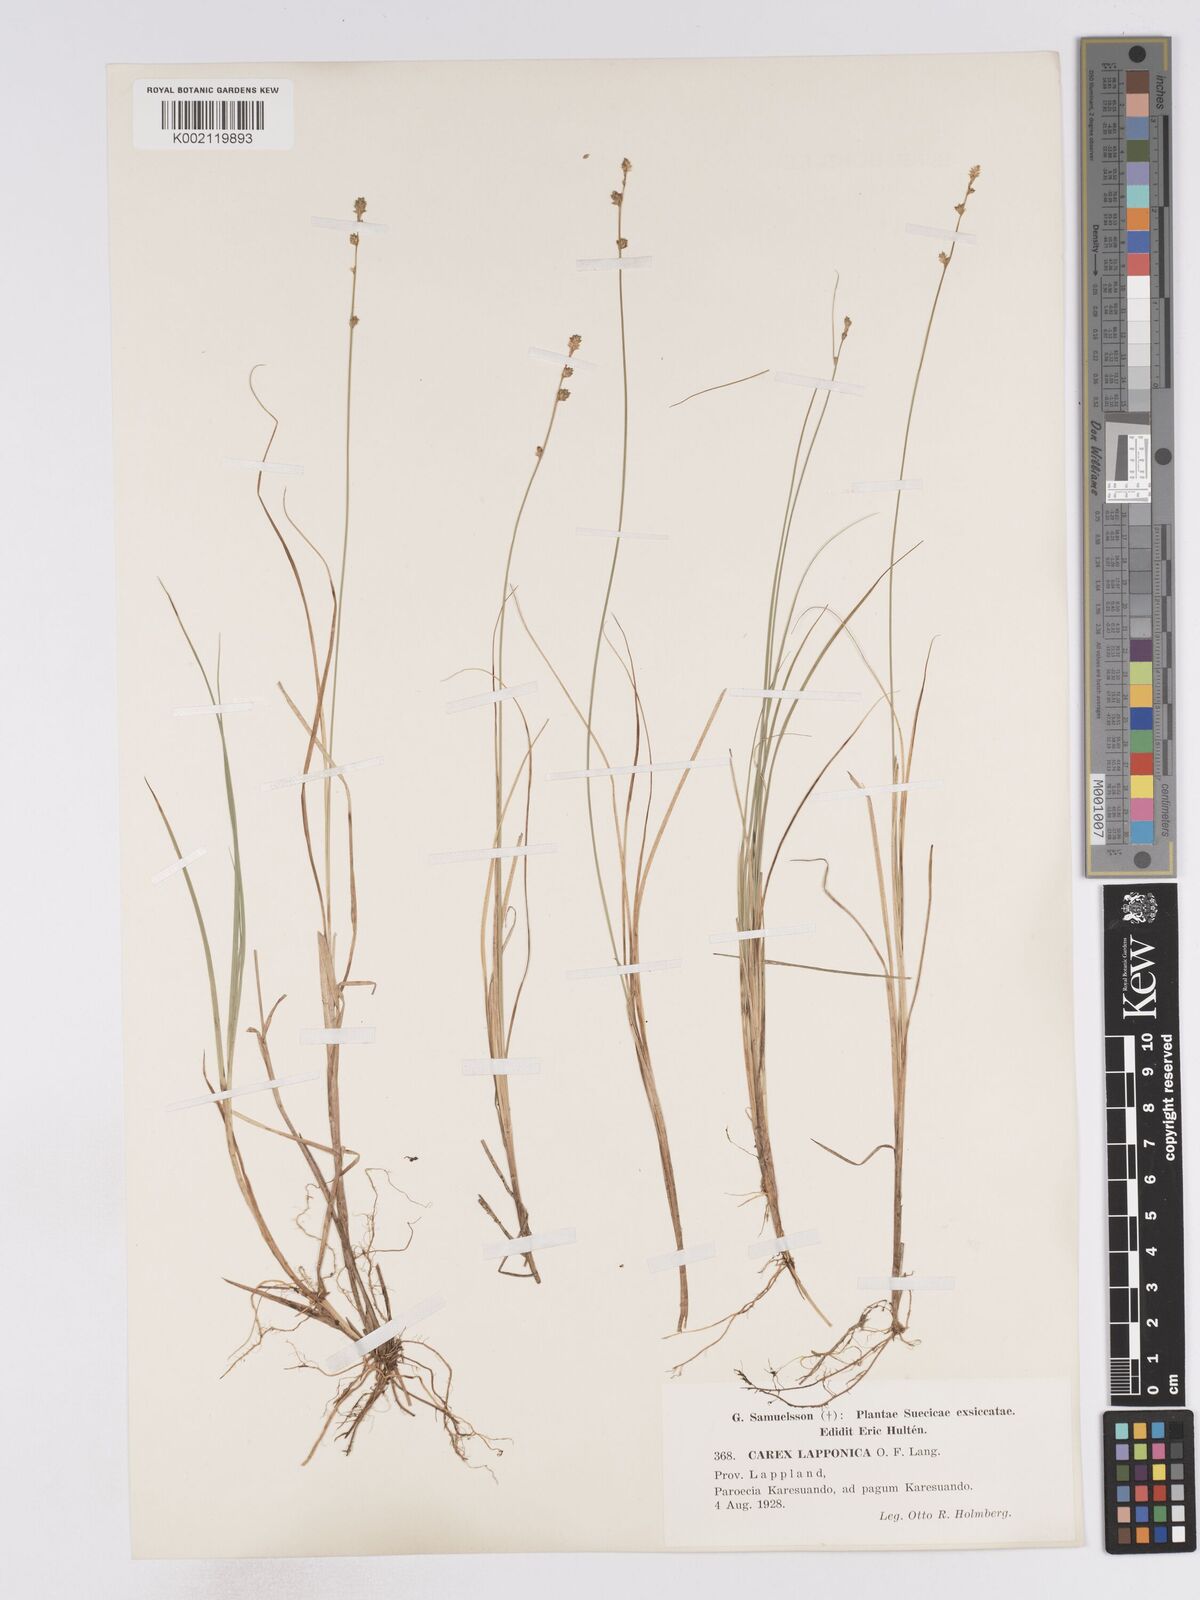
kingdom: Plantae
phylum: Tracheophyta
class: Liliopsida
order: Poales
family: Cyperaceae
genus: Carex
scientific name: Carex lapponica
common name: Lapland sedge
